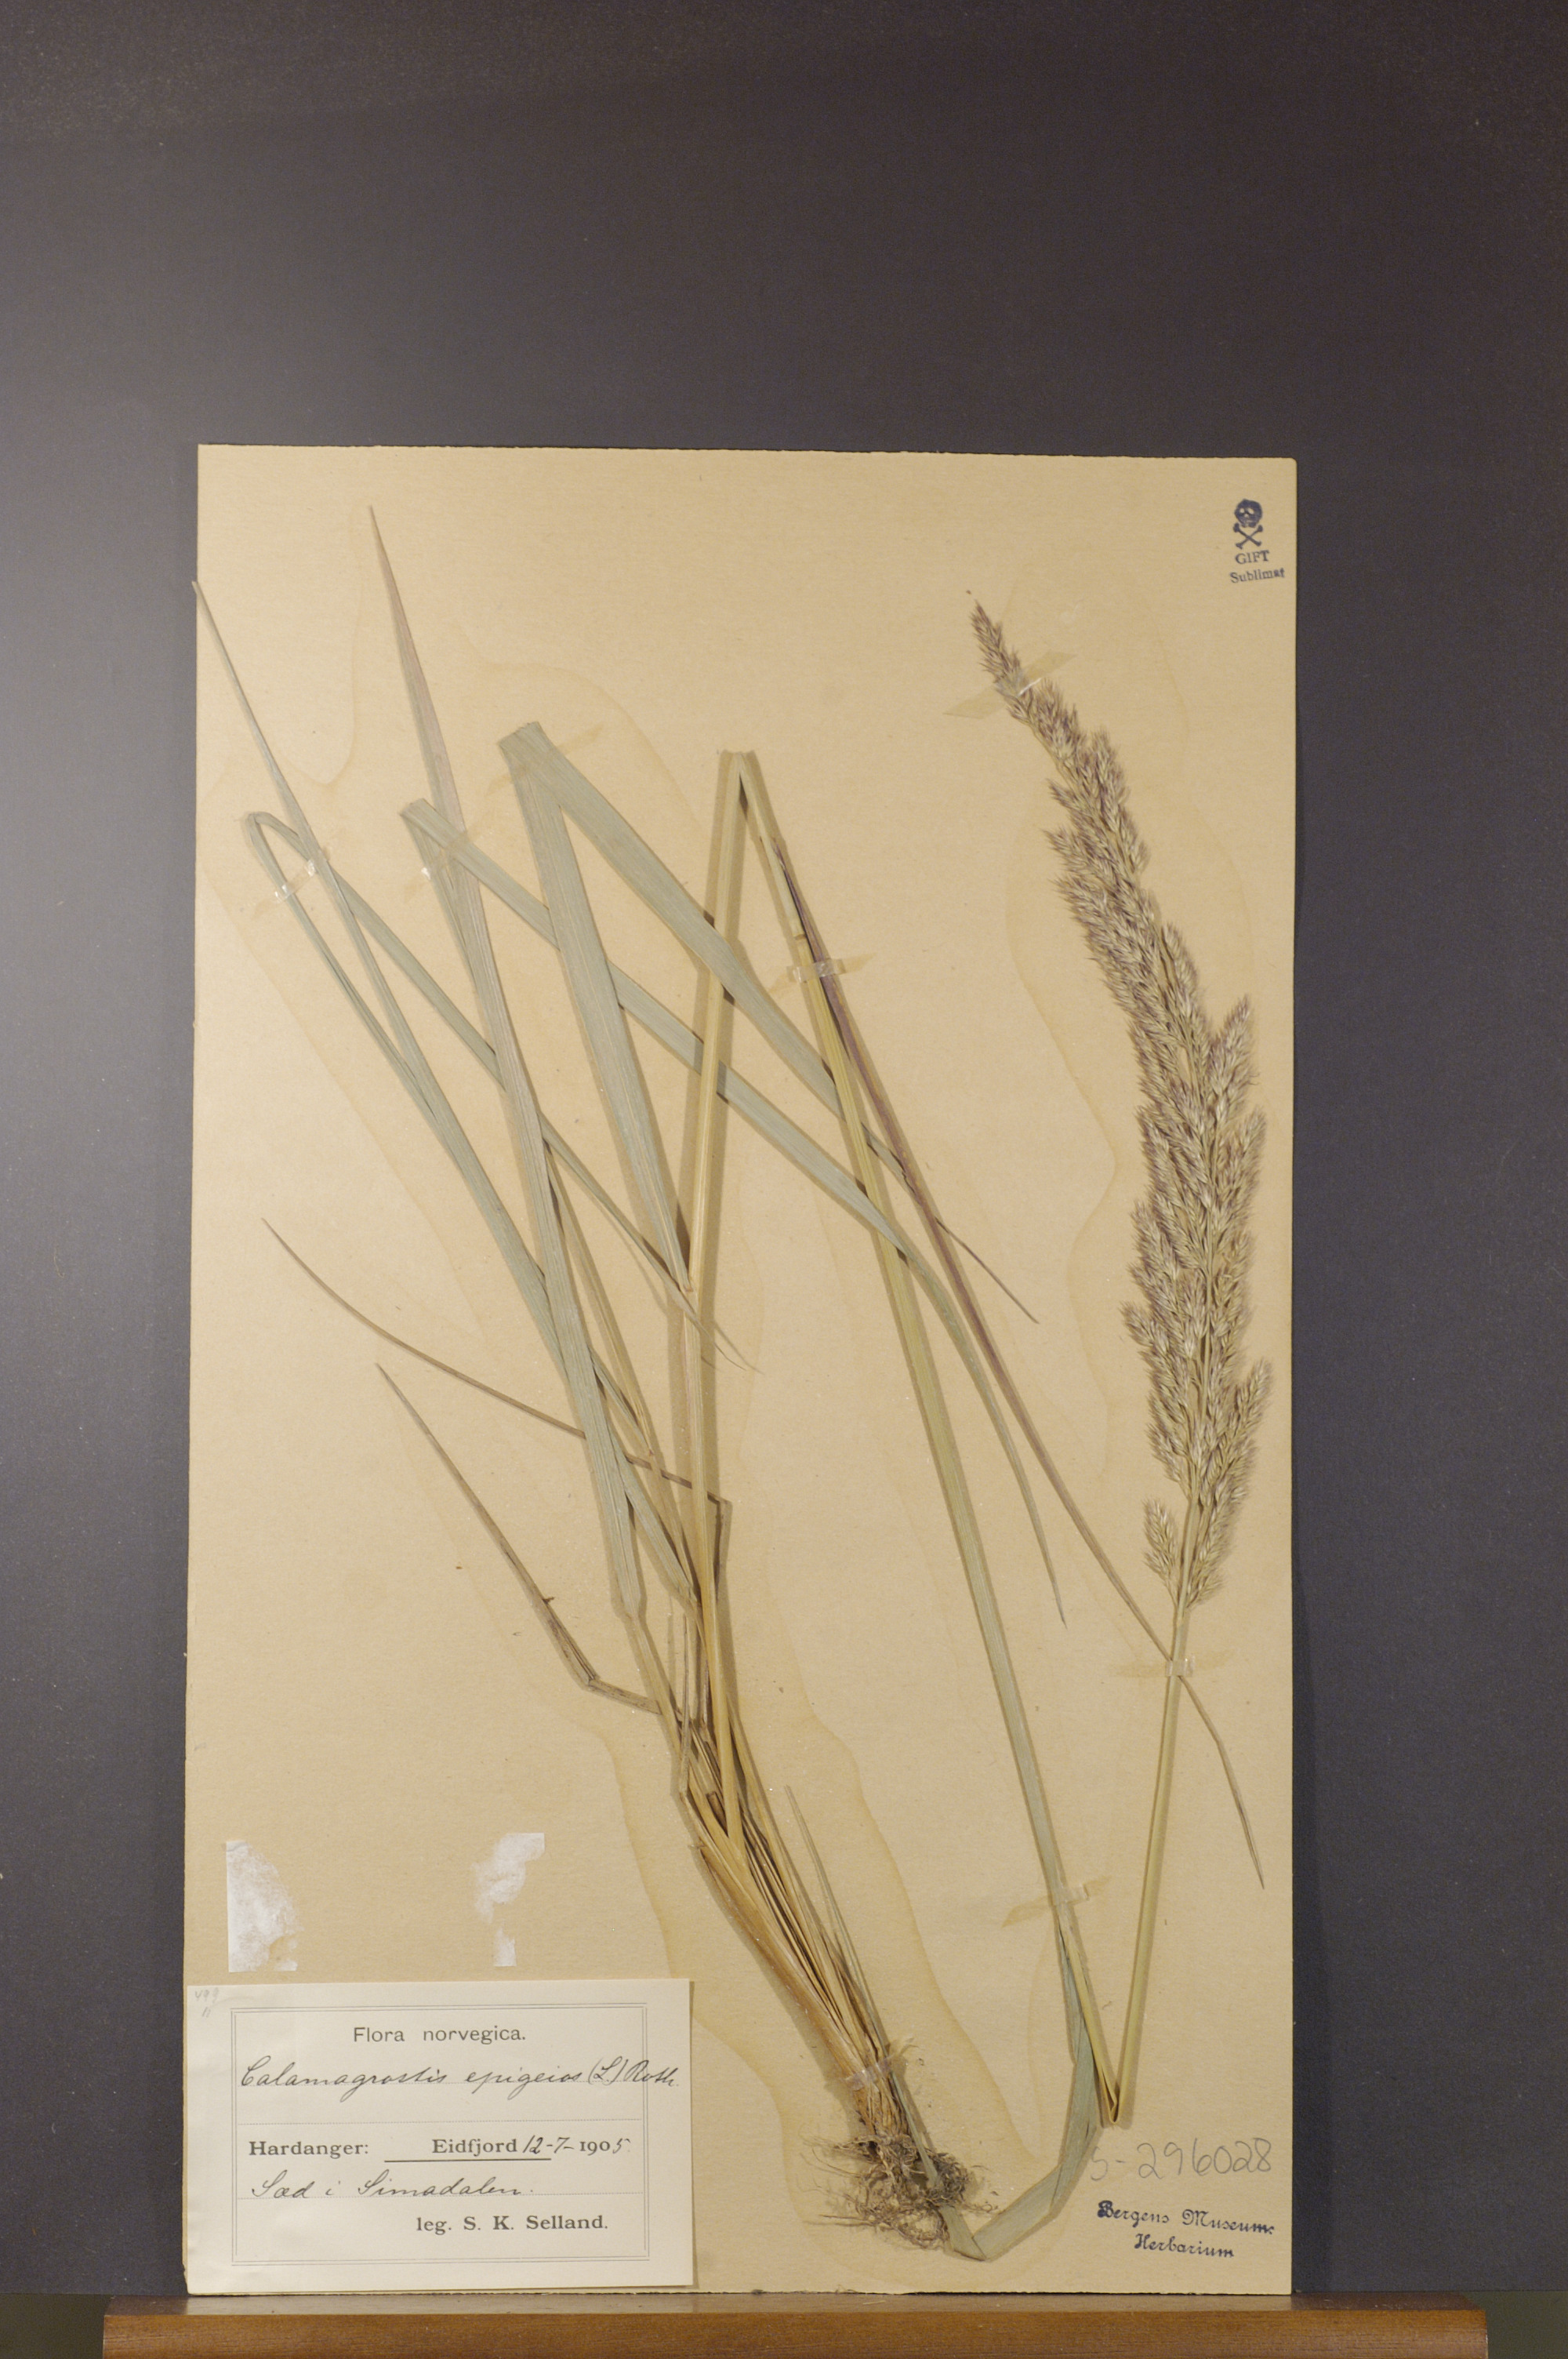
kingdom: Plantae
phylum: Tracheophyta
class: Liliopsida
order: Poales
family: Poaceae
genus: Calamagrostis
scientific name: Calamagrostis epigejos
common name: Wood small-reed
